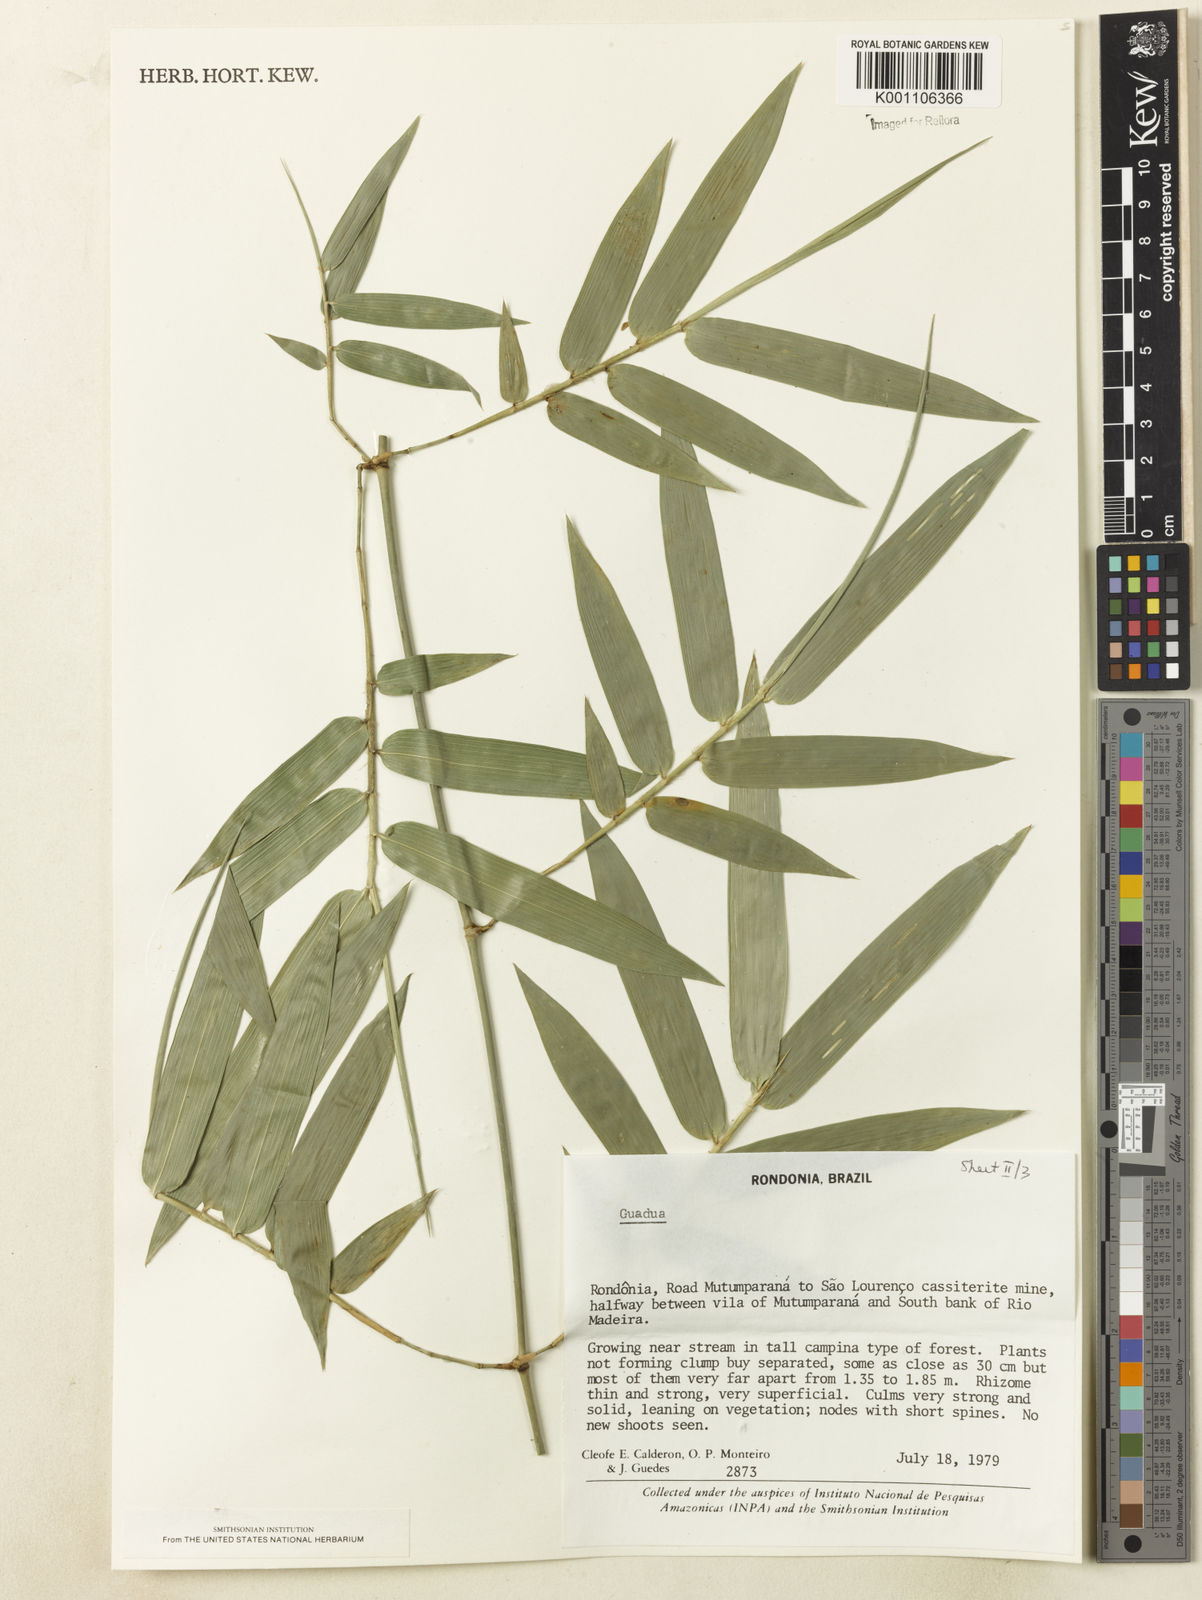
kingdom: Plantae
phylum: Tracheophyta
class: Liliopsida
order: Poales
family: Poaceae
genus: Guadua
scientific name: Guadua
